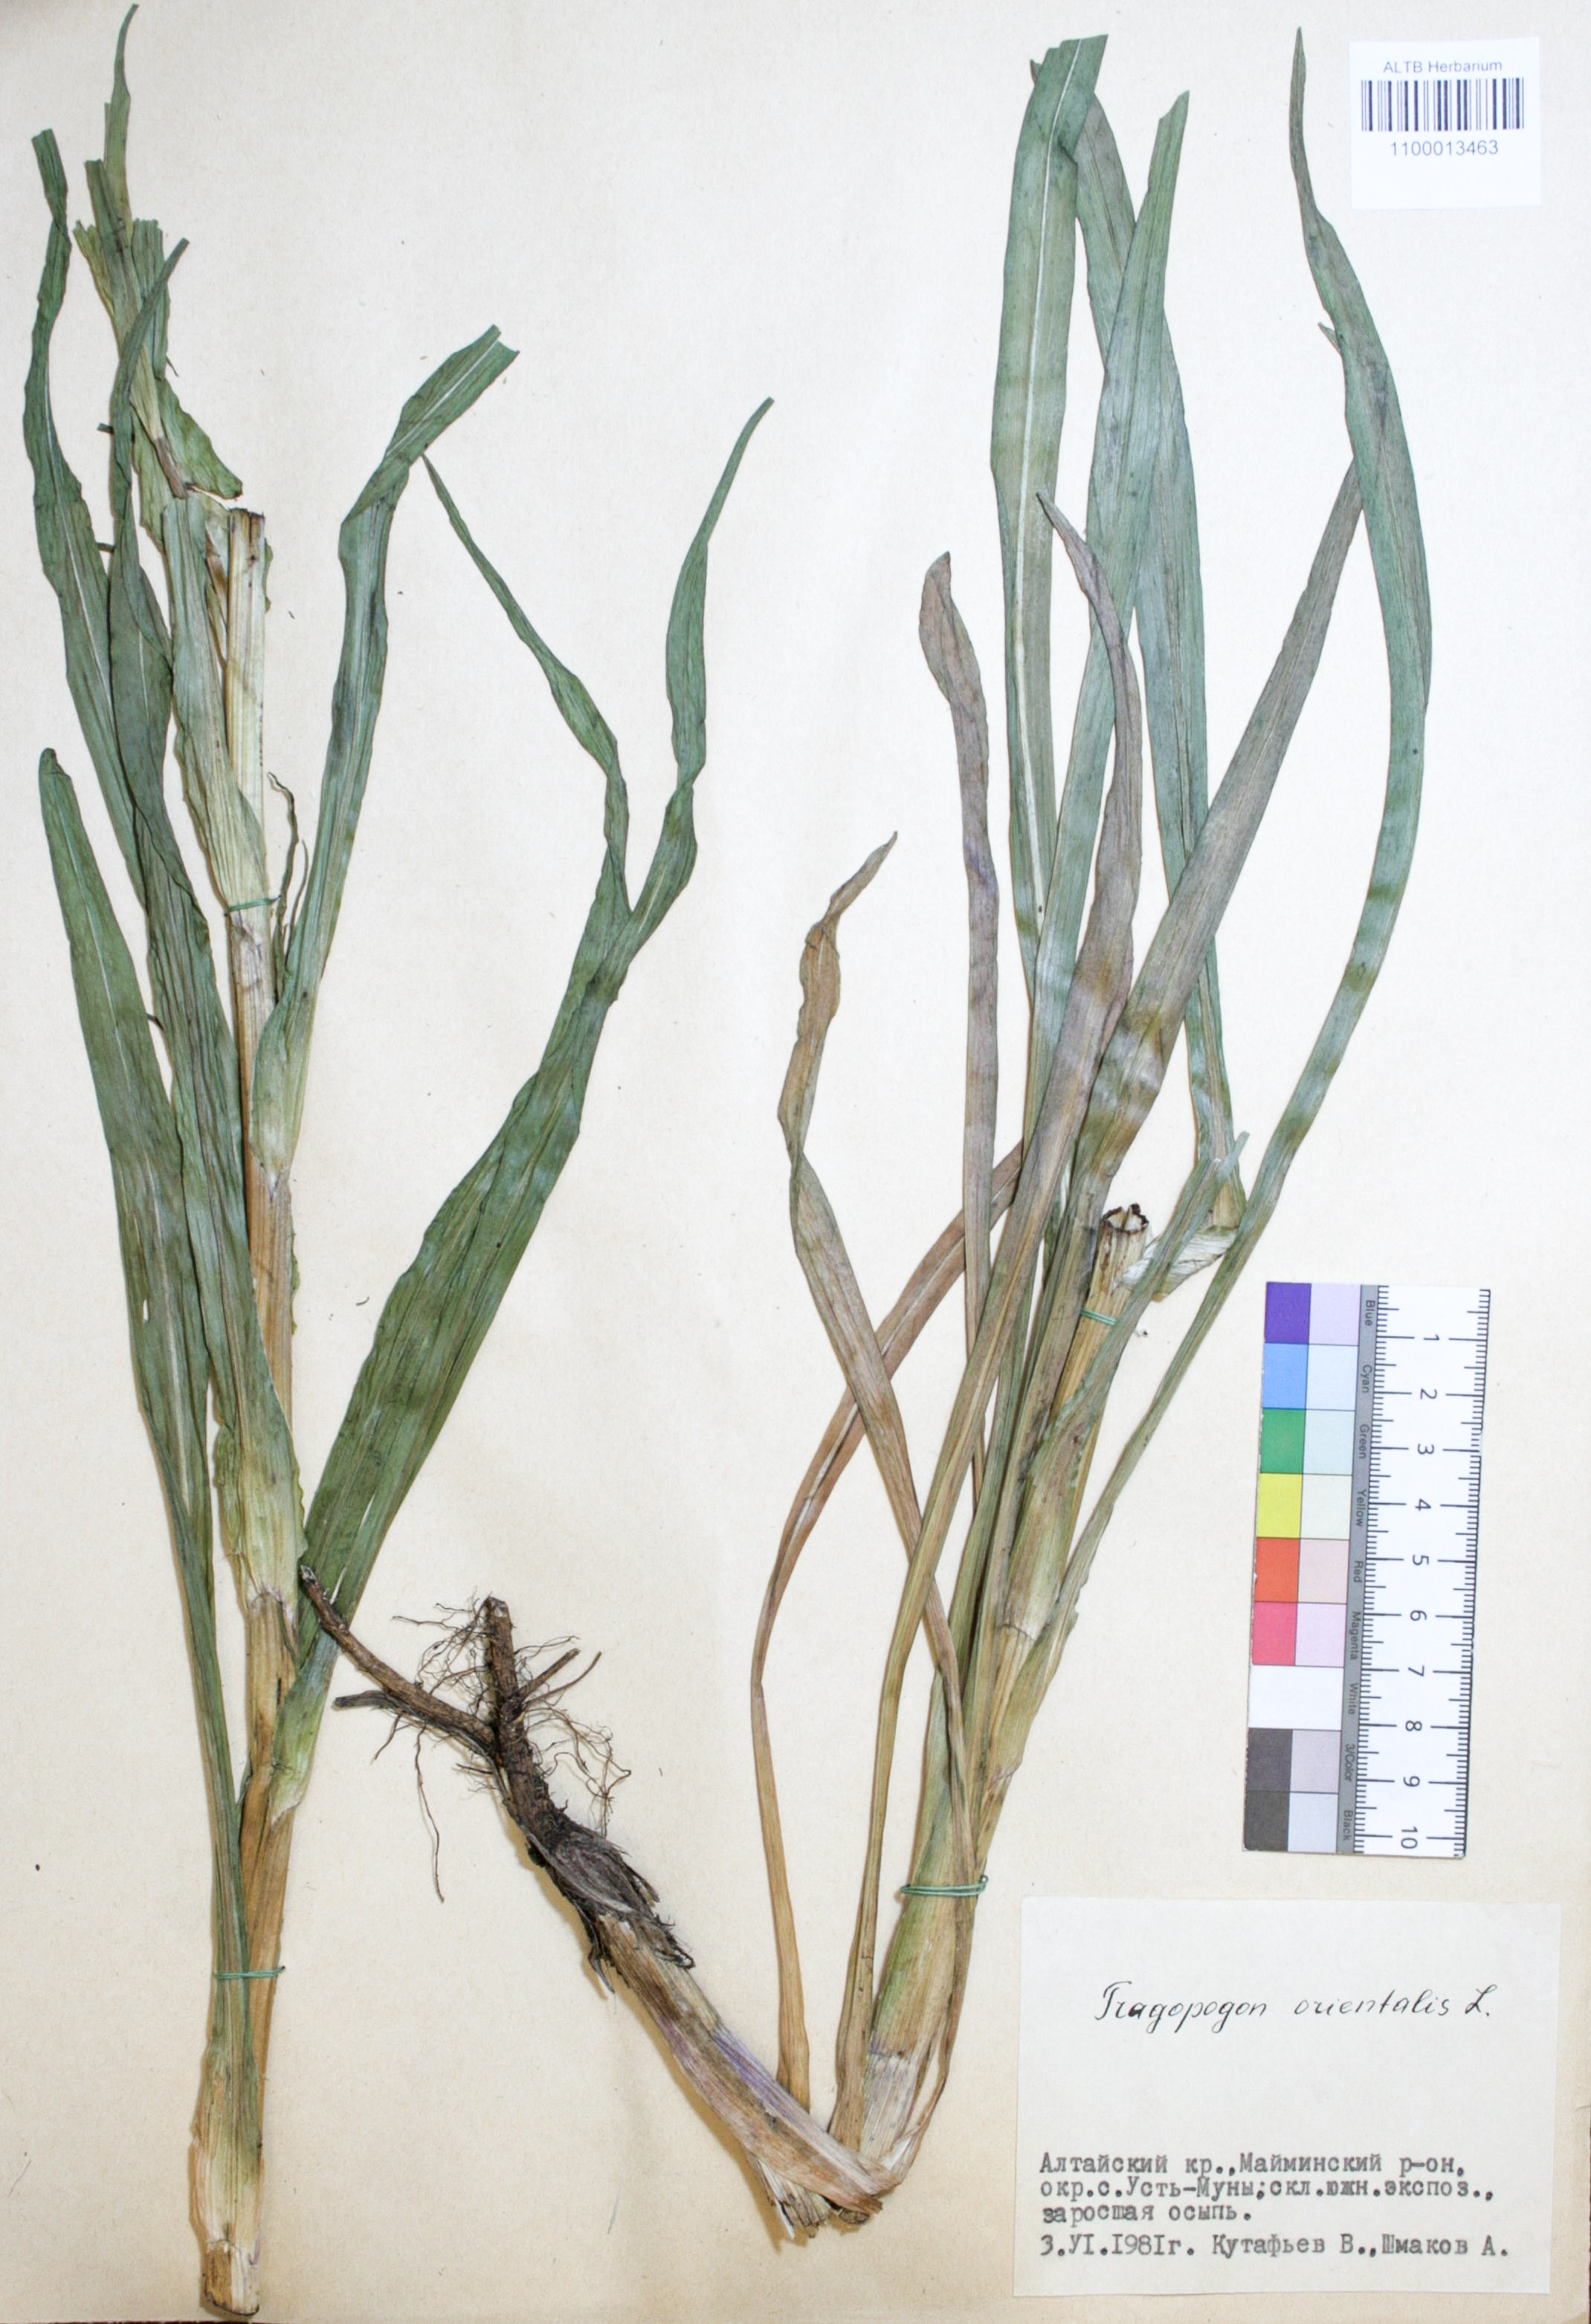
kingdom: Plantae
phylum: Tracheophyta
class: Magnoliopsida
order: Asterales
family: Asteraceae
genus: Tragopogon
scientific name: Tragopogon orientalis
